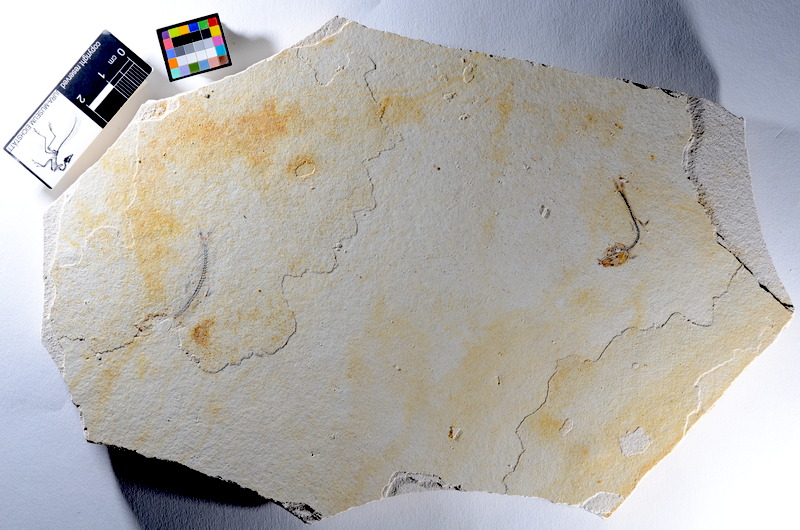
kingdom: Animalia
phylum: Chordata
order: Salmoniformes
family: Orthogonikleithridae
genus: Orthogonikleithrus
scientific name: Orthogonikleithrus hoelli
